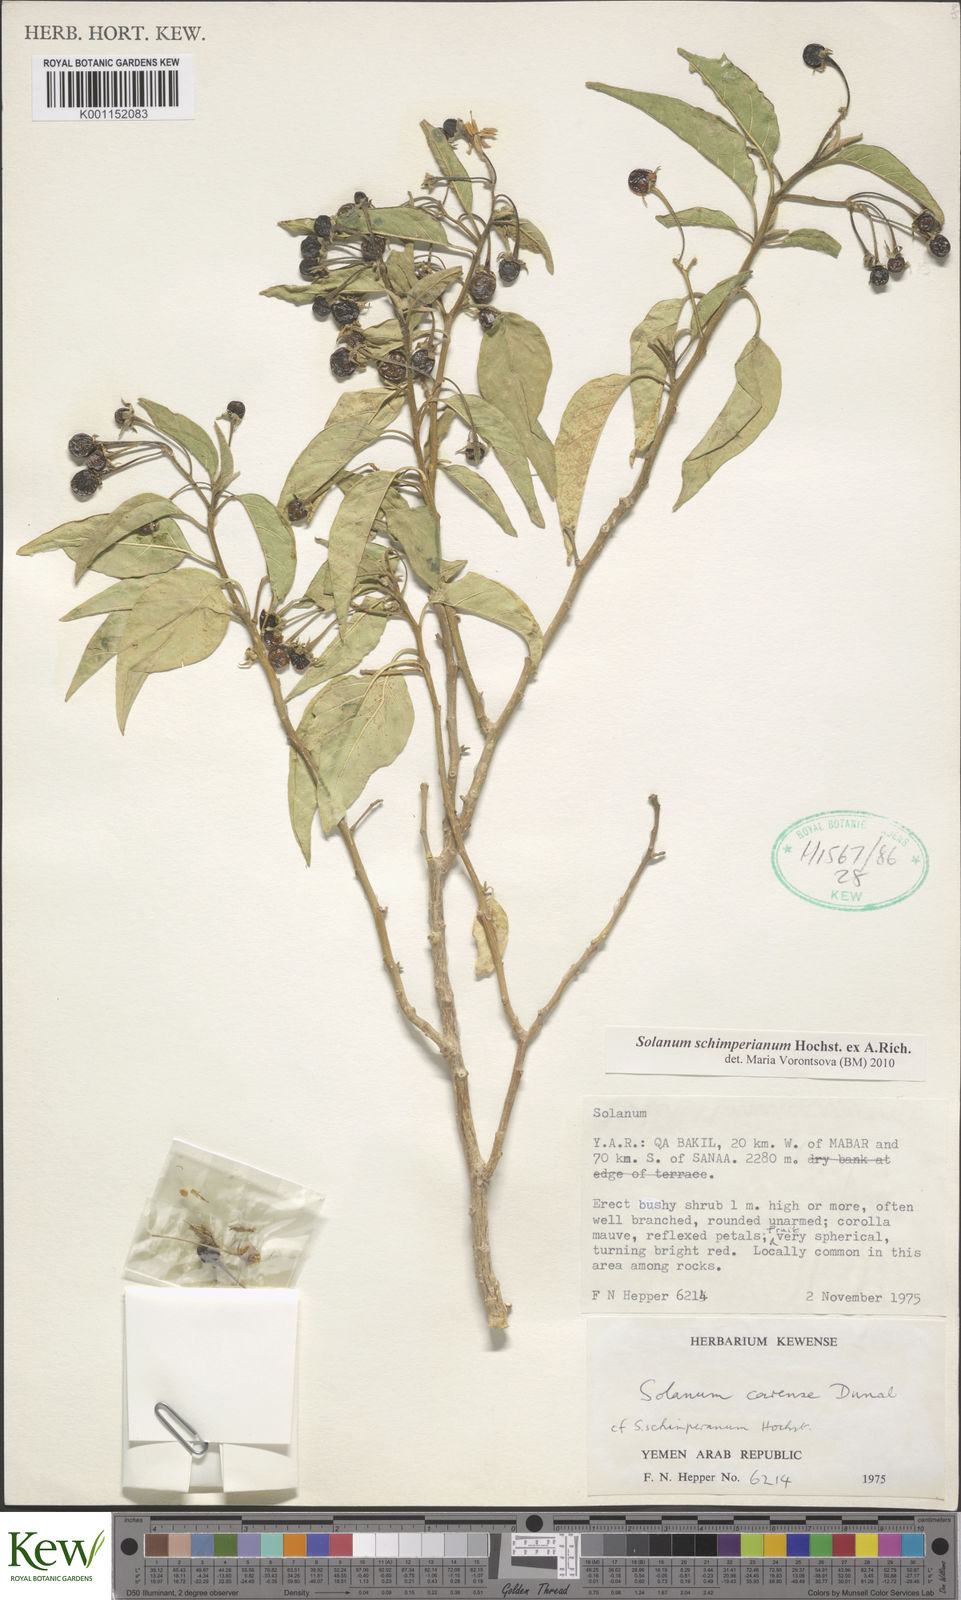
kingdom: Plantae
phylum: Tracheophyta
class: Magnoliopsida
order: Solanales
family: Solanaceae
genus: Solanum
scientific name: Solanum schimperianum
